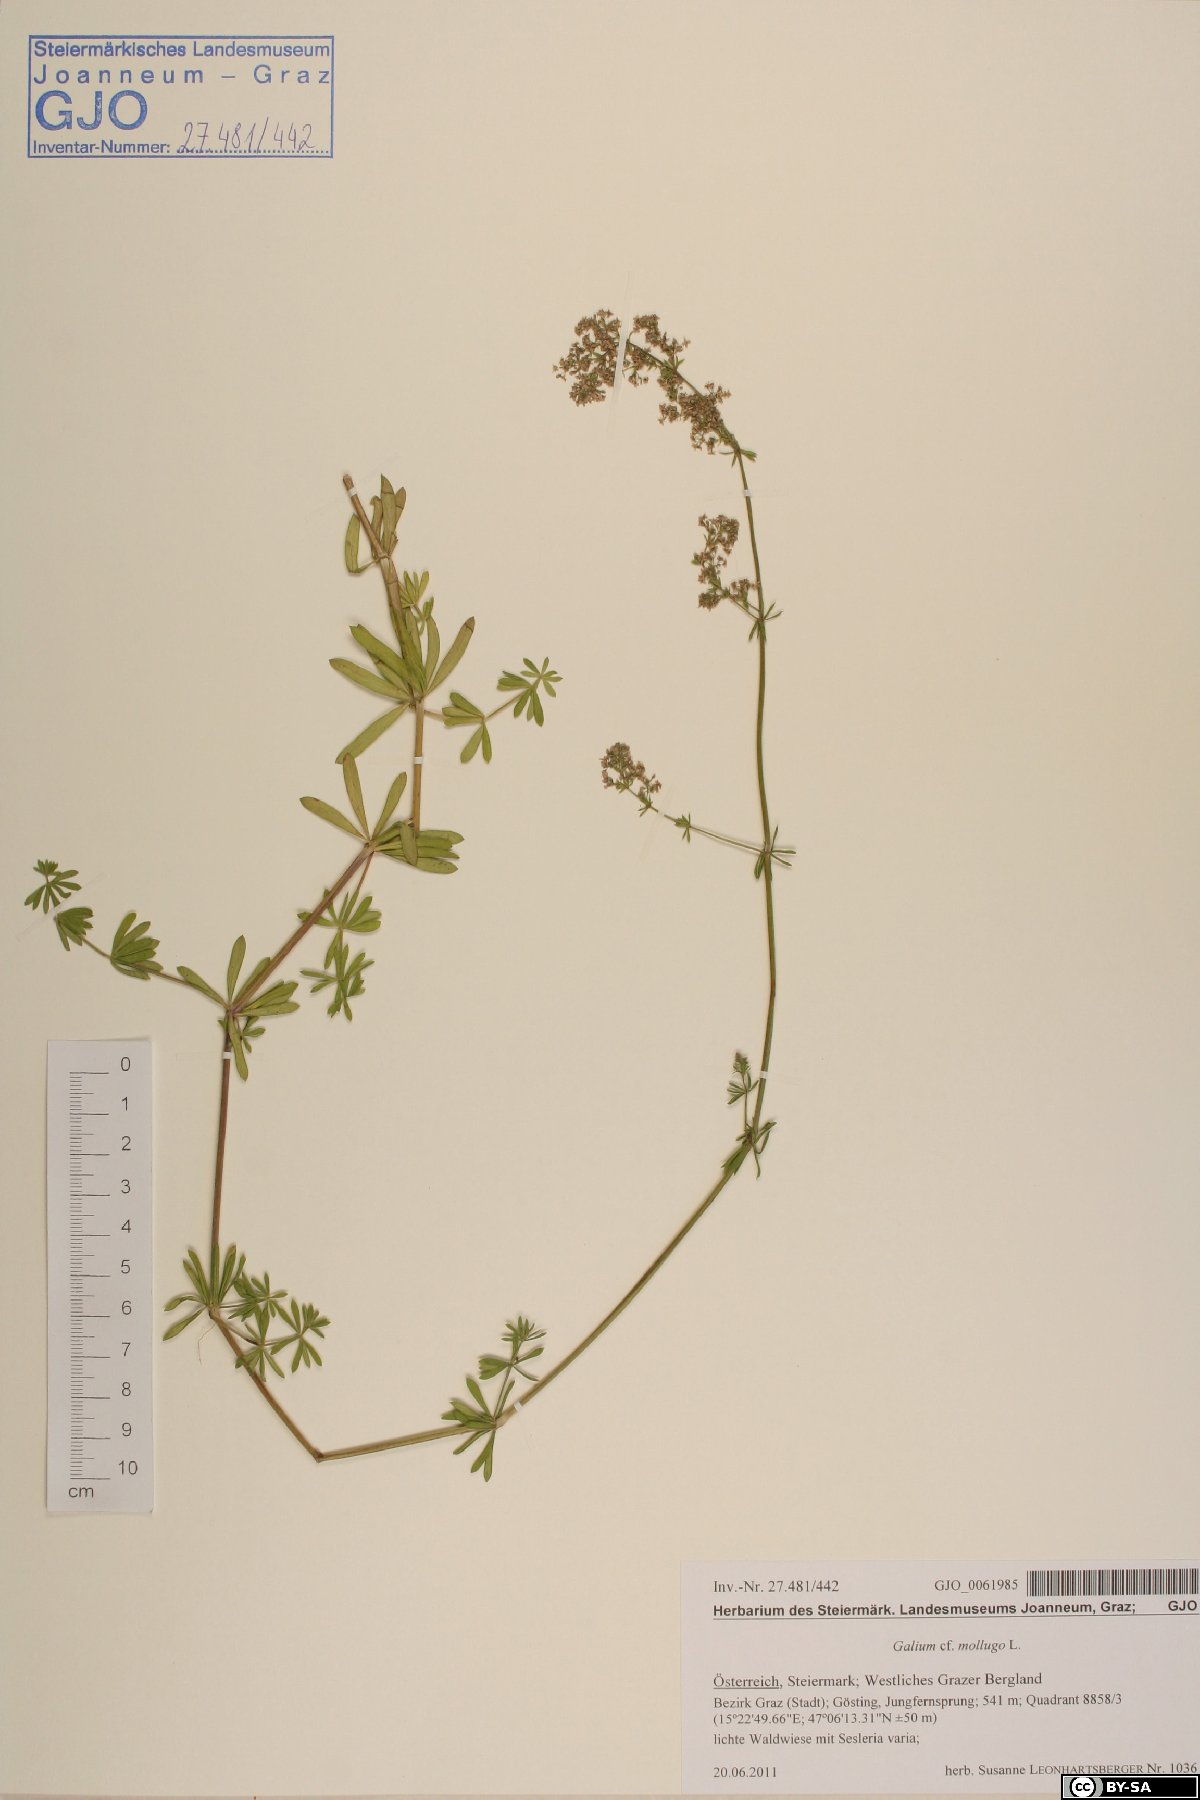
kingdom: Plantae
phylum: Tracheophyta
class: Magnoliopsida
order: Gentianales
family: Rubiaceae
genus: Galium
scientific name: Galium mollugo
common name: Hedge bedstraw
